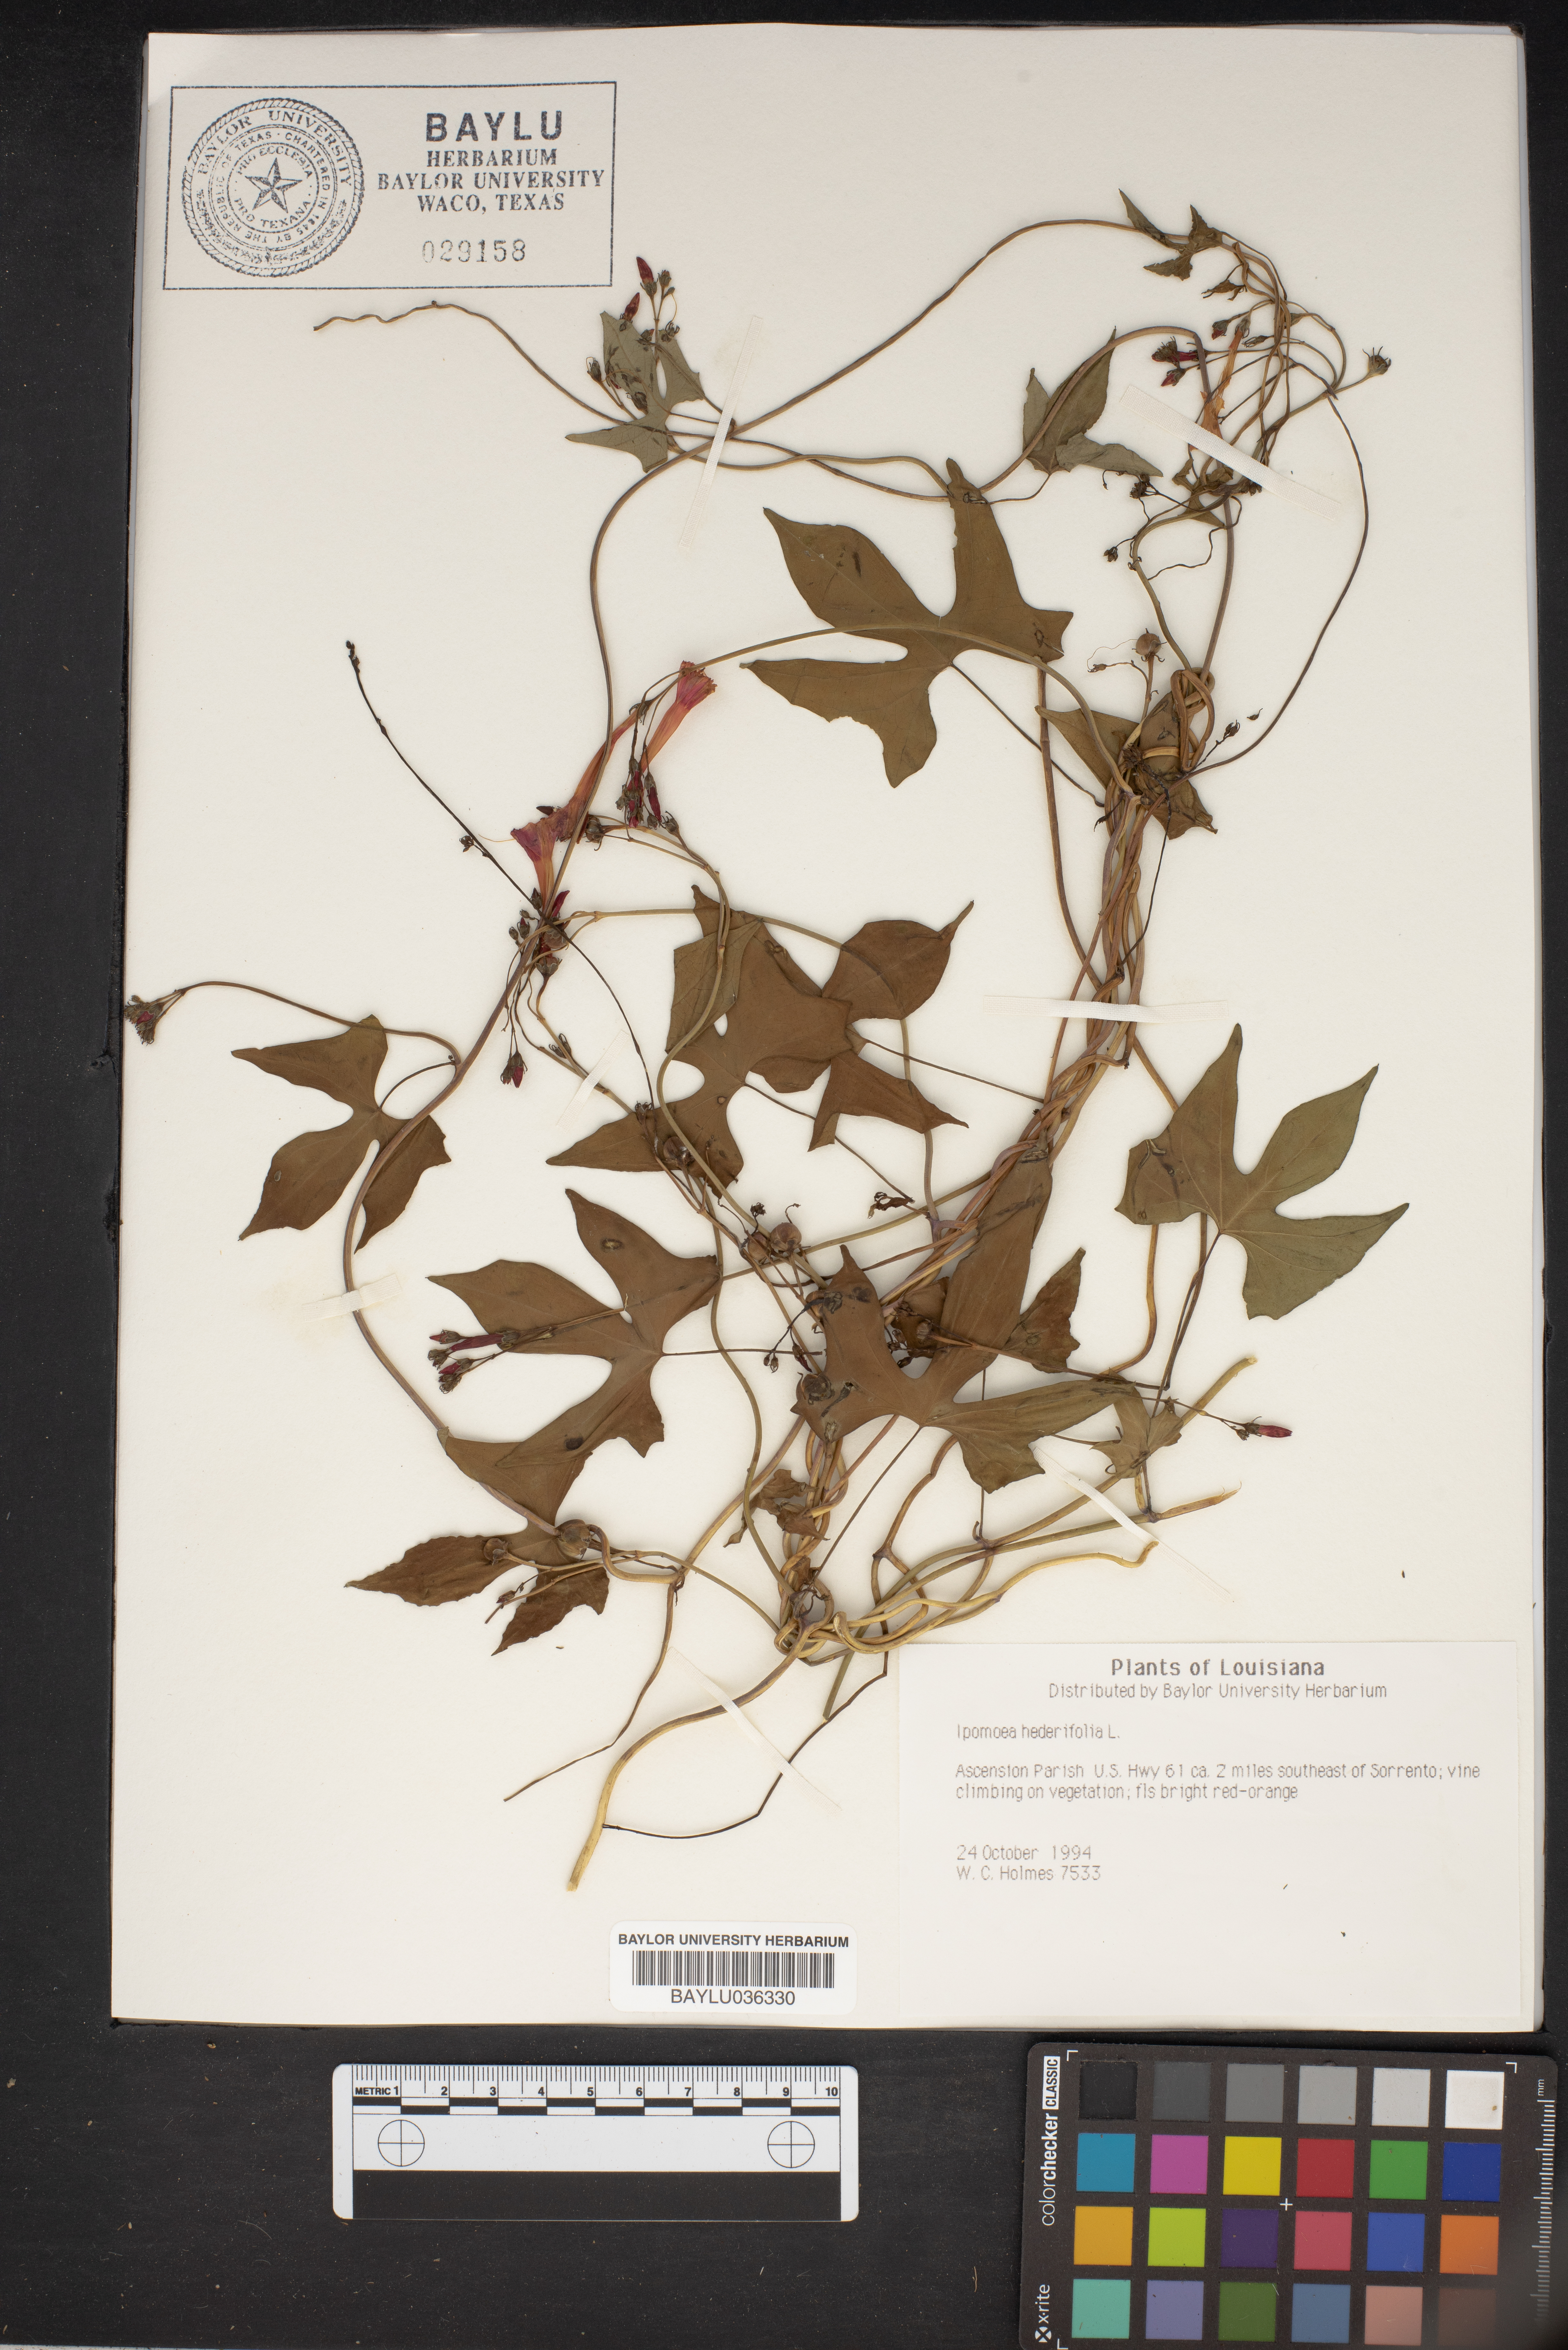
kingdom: Plantae
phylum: Tracheophyta
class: Magnoliopsida
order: Solanales
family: Convolvulaceae
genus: Ipomoea
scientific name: Ipomoea hederifolia
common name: Ivy-leaf morning-glory
